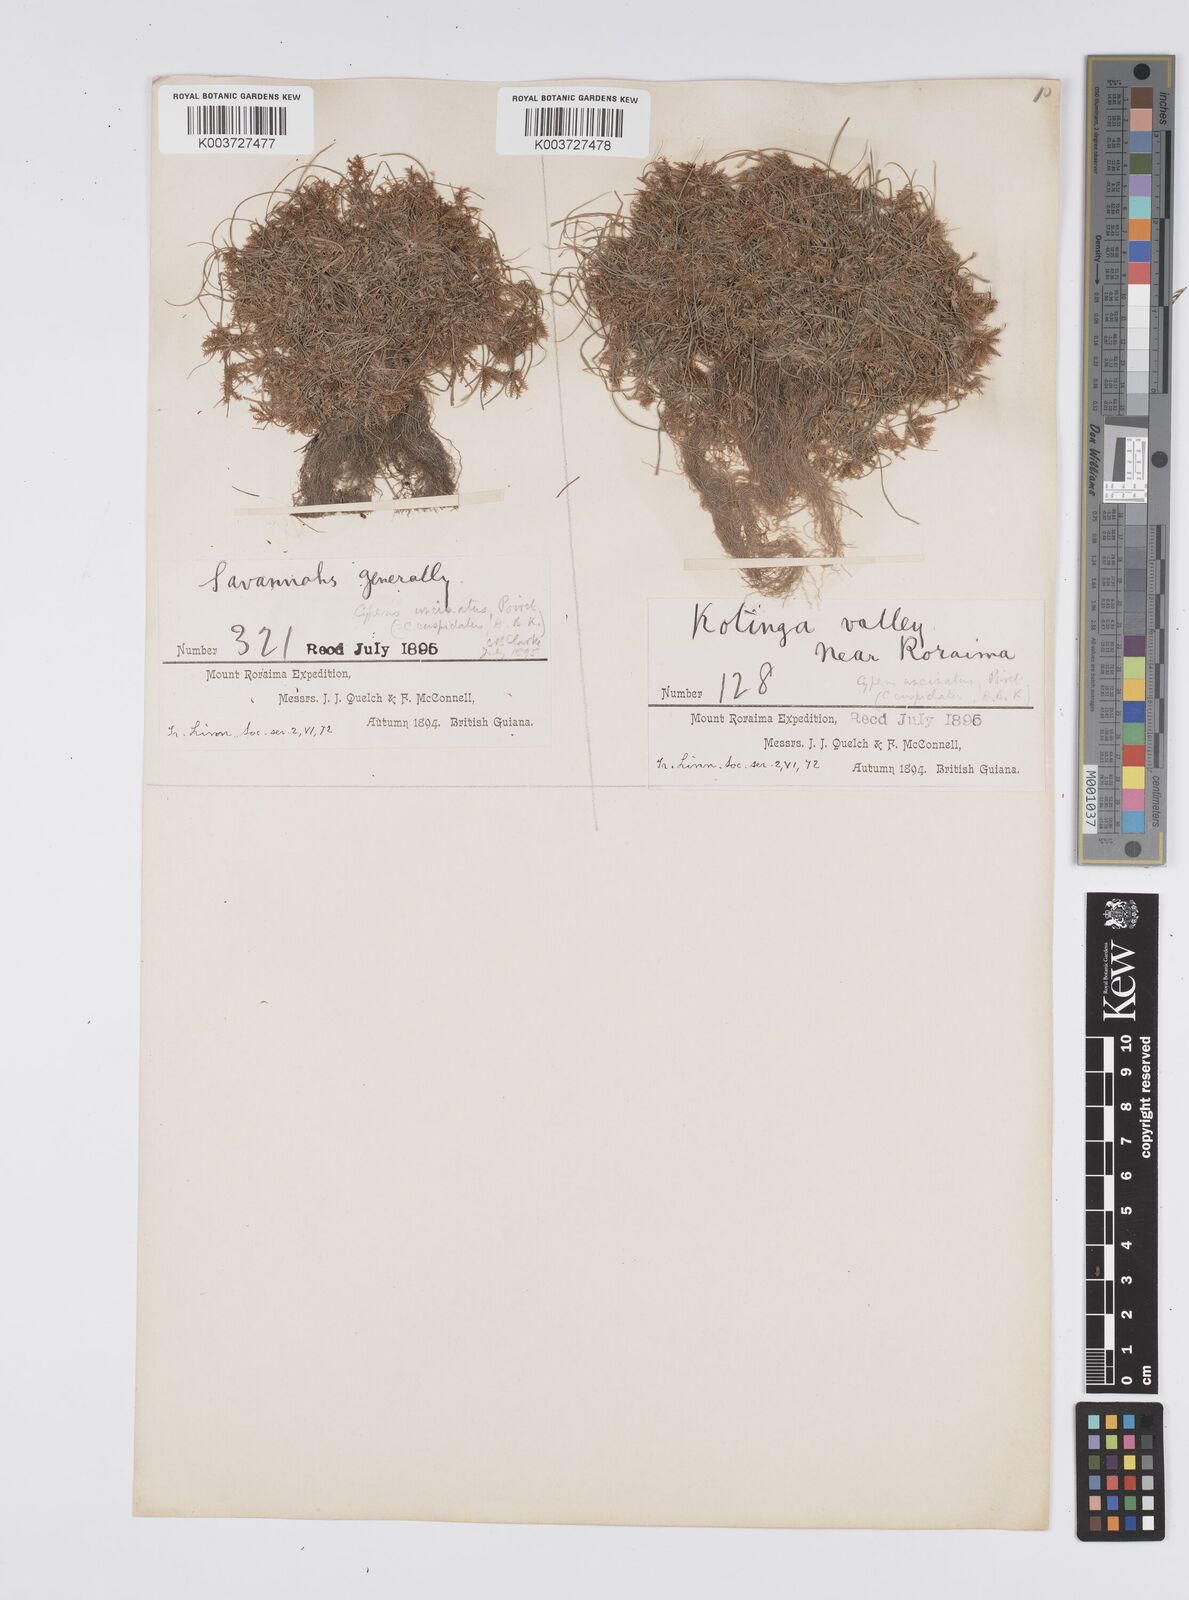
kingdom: Plantae
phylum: Tracheophyta
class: Liliopsida
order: Poales
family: Cyperaceae
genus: Cyperus
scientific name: Cyperus cuspidatus
